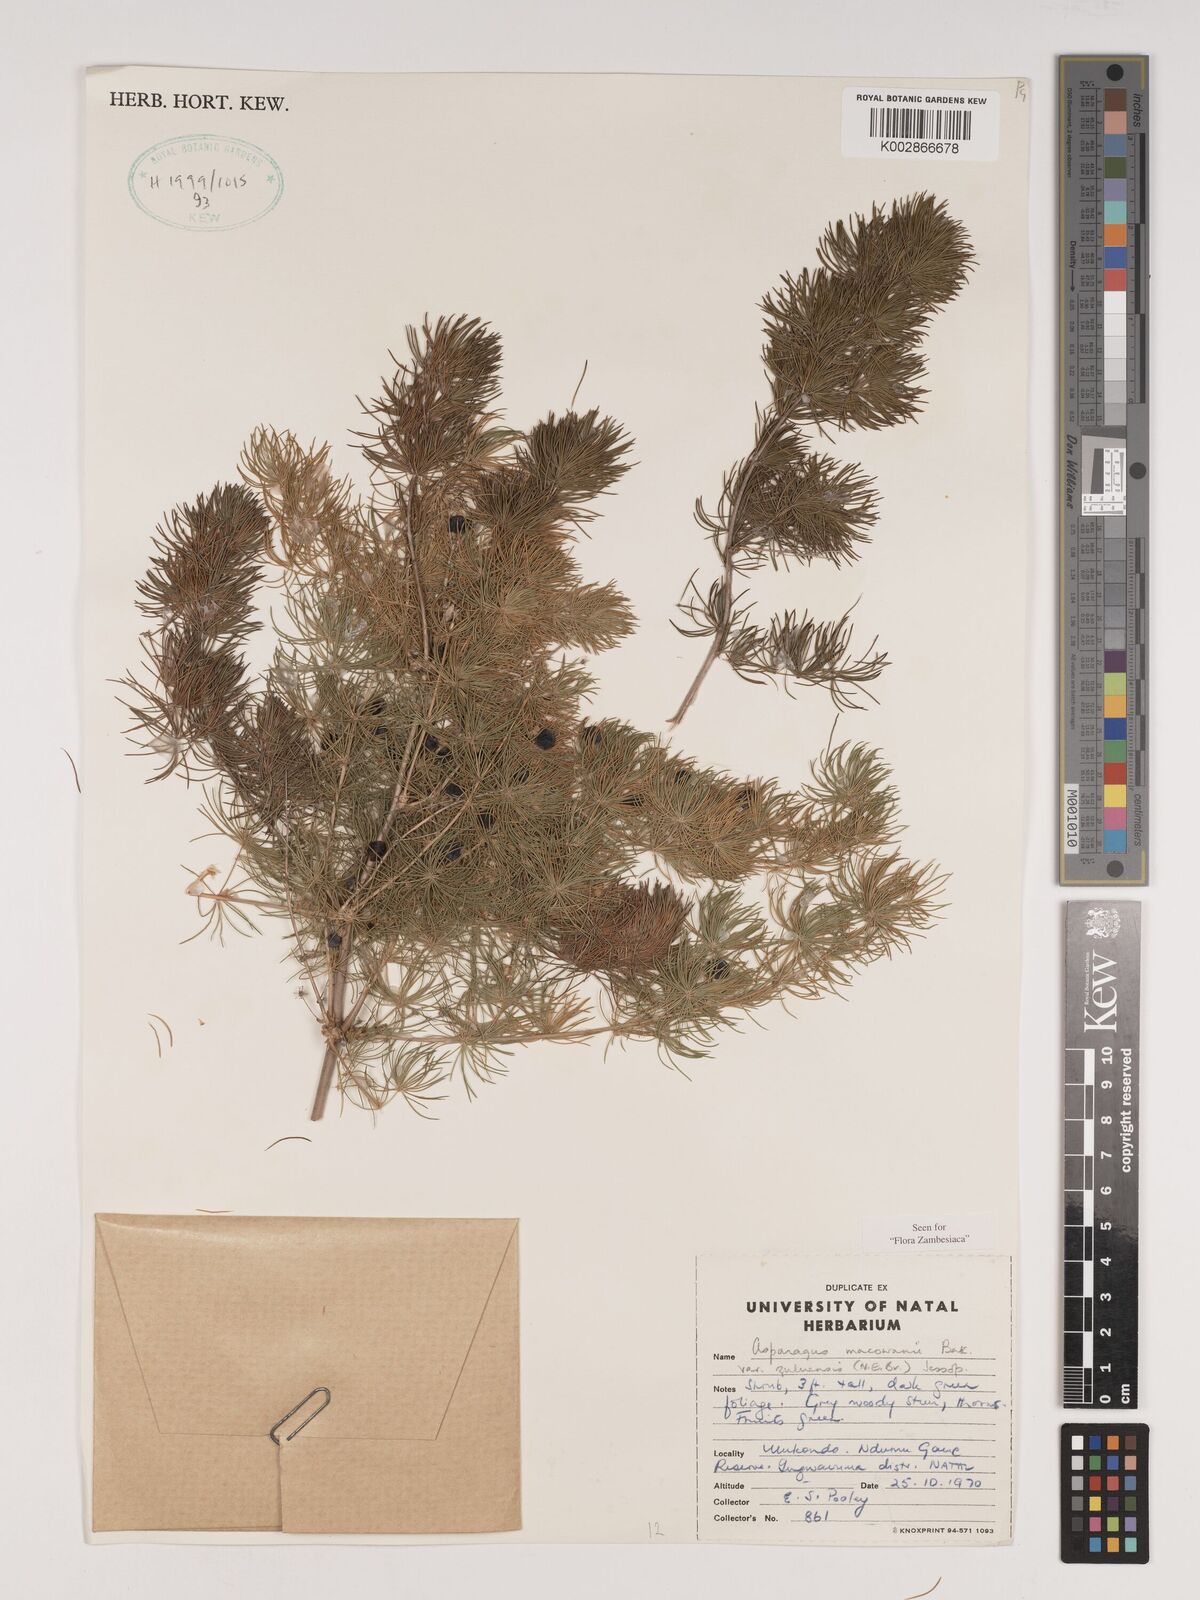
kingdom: Plantae
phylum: Tracheophyta
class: Liliopsida
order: Asparagales
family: Asparagaceae
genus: Asparagus
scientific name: Asparagus
